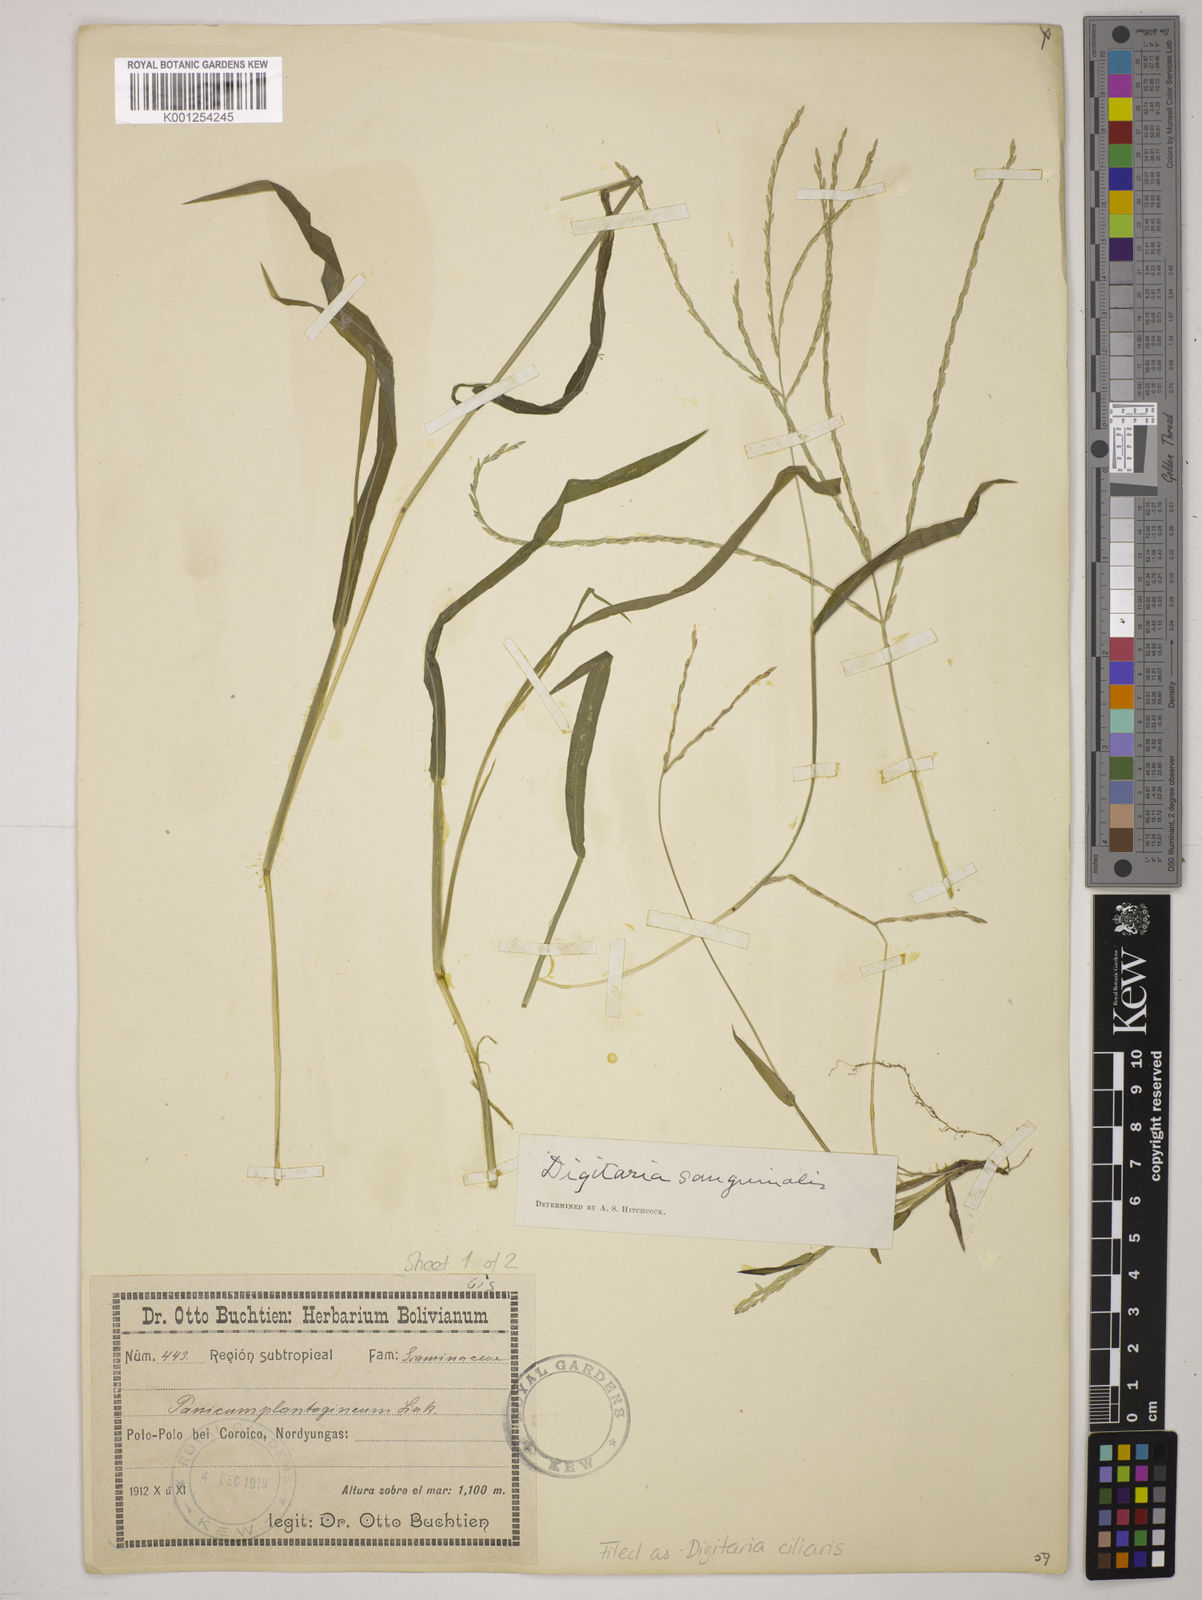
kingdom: Plantae
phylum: Tracheophyta
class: Liliopsida
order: Poales
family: Poaceae
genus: Digitaria
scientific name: Digitaria
